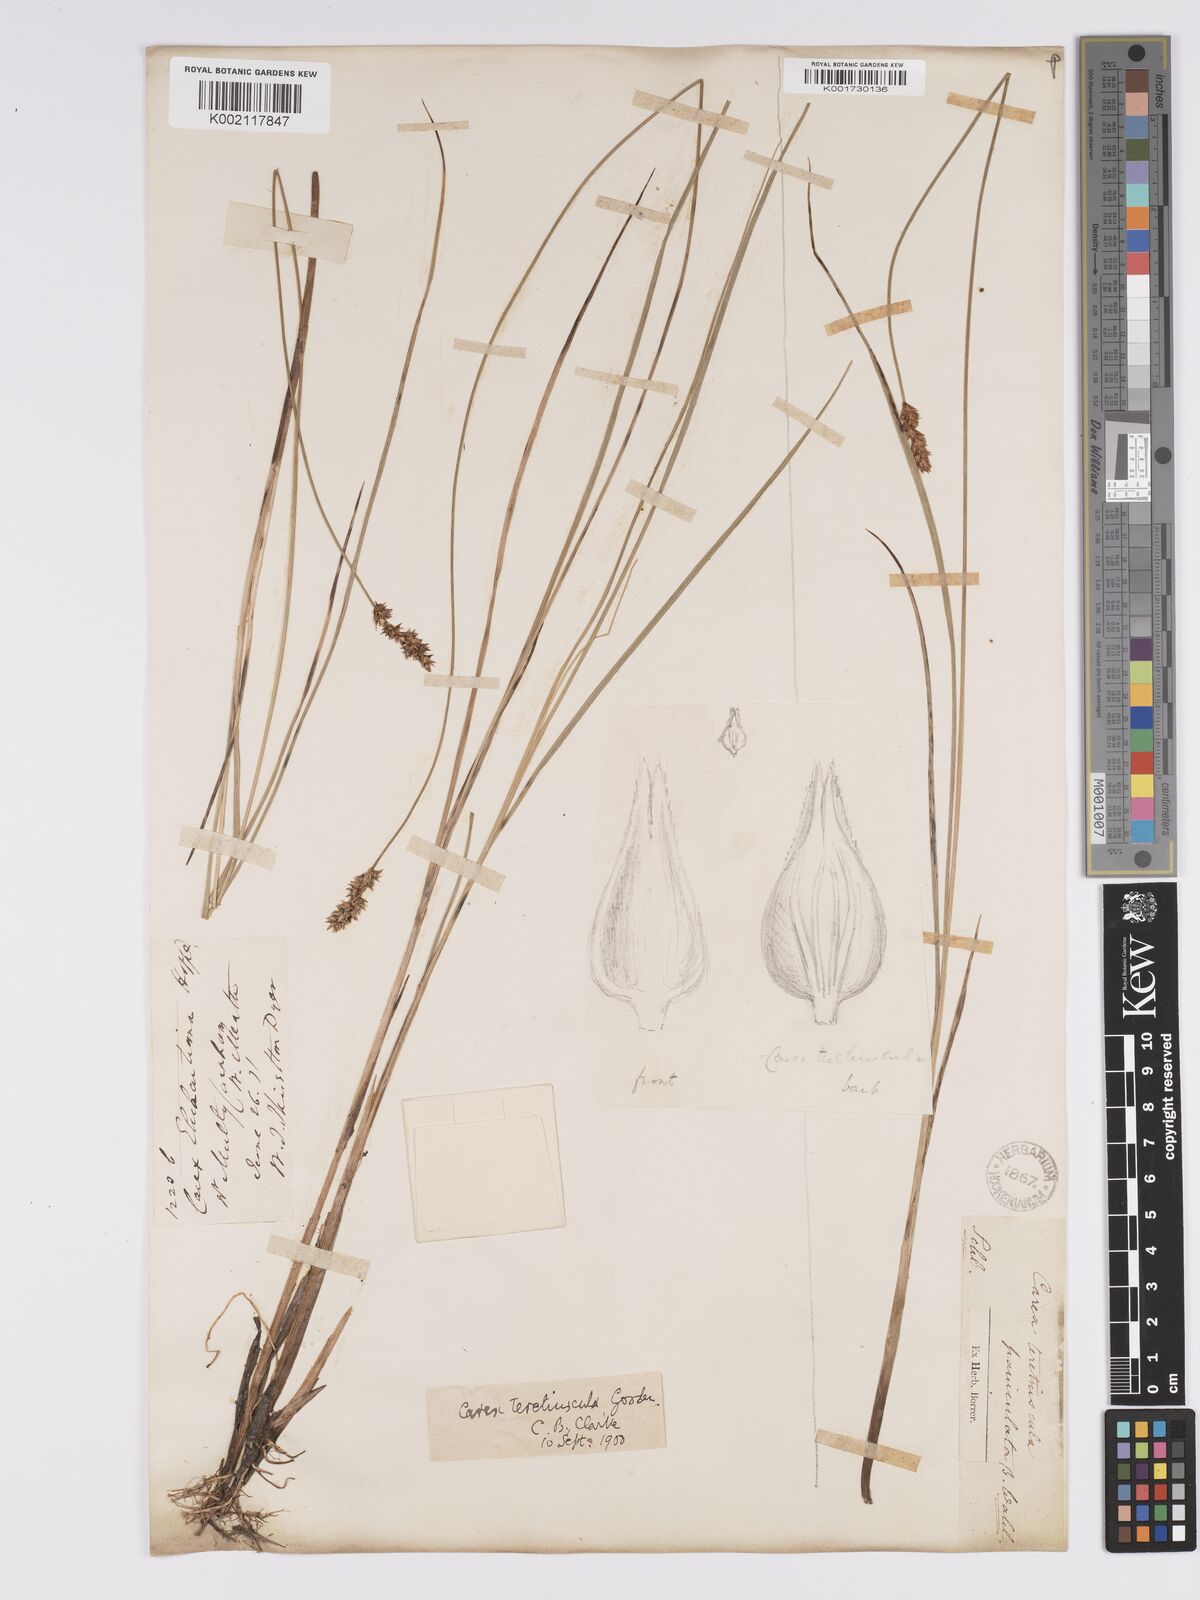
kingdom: Plantae
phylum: Tracheophyta
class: Liliopsida
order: Poales
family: Cyperaceae
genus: Carex
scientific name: Carex diandra
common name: Lesser tussock-sedge
